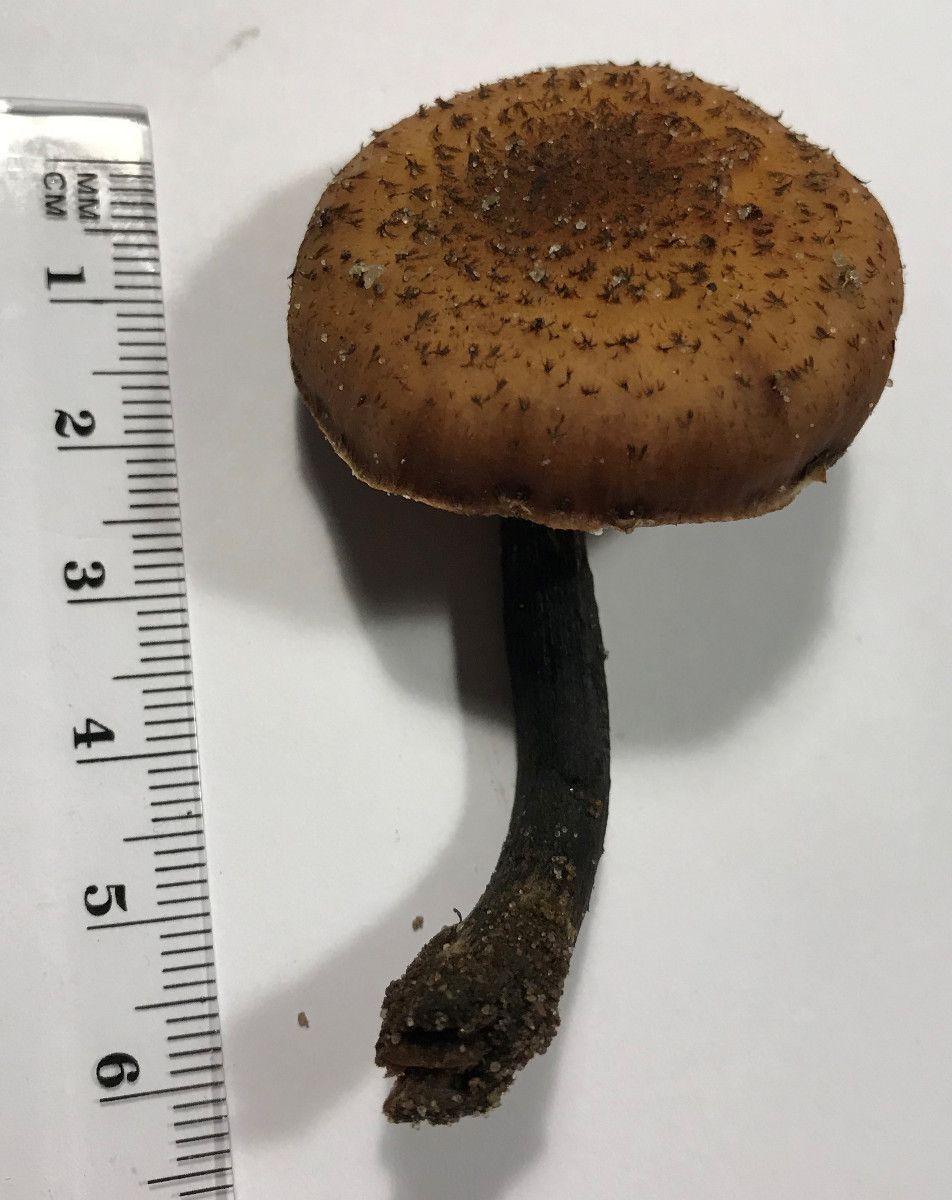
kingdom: Fungi
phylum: Basidiomycota
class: Agaricomycetes
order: Agaricales
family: Physalacriaceae
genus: Armillaria
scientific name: Armillaria
